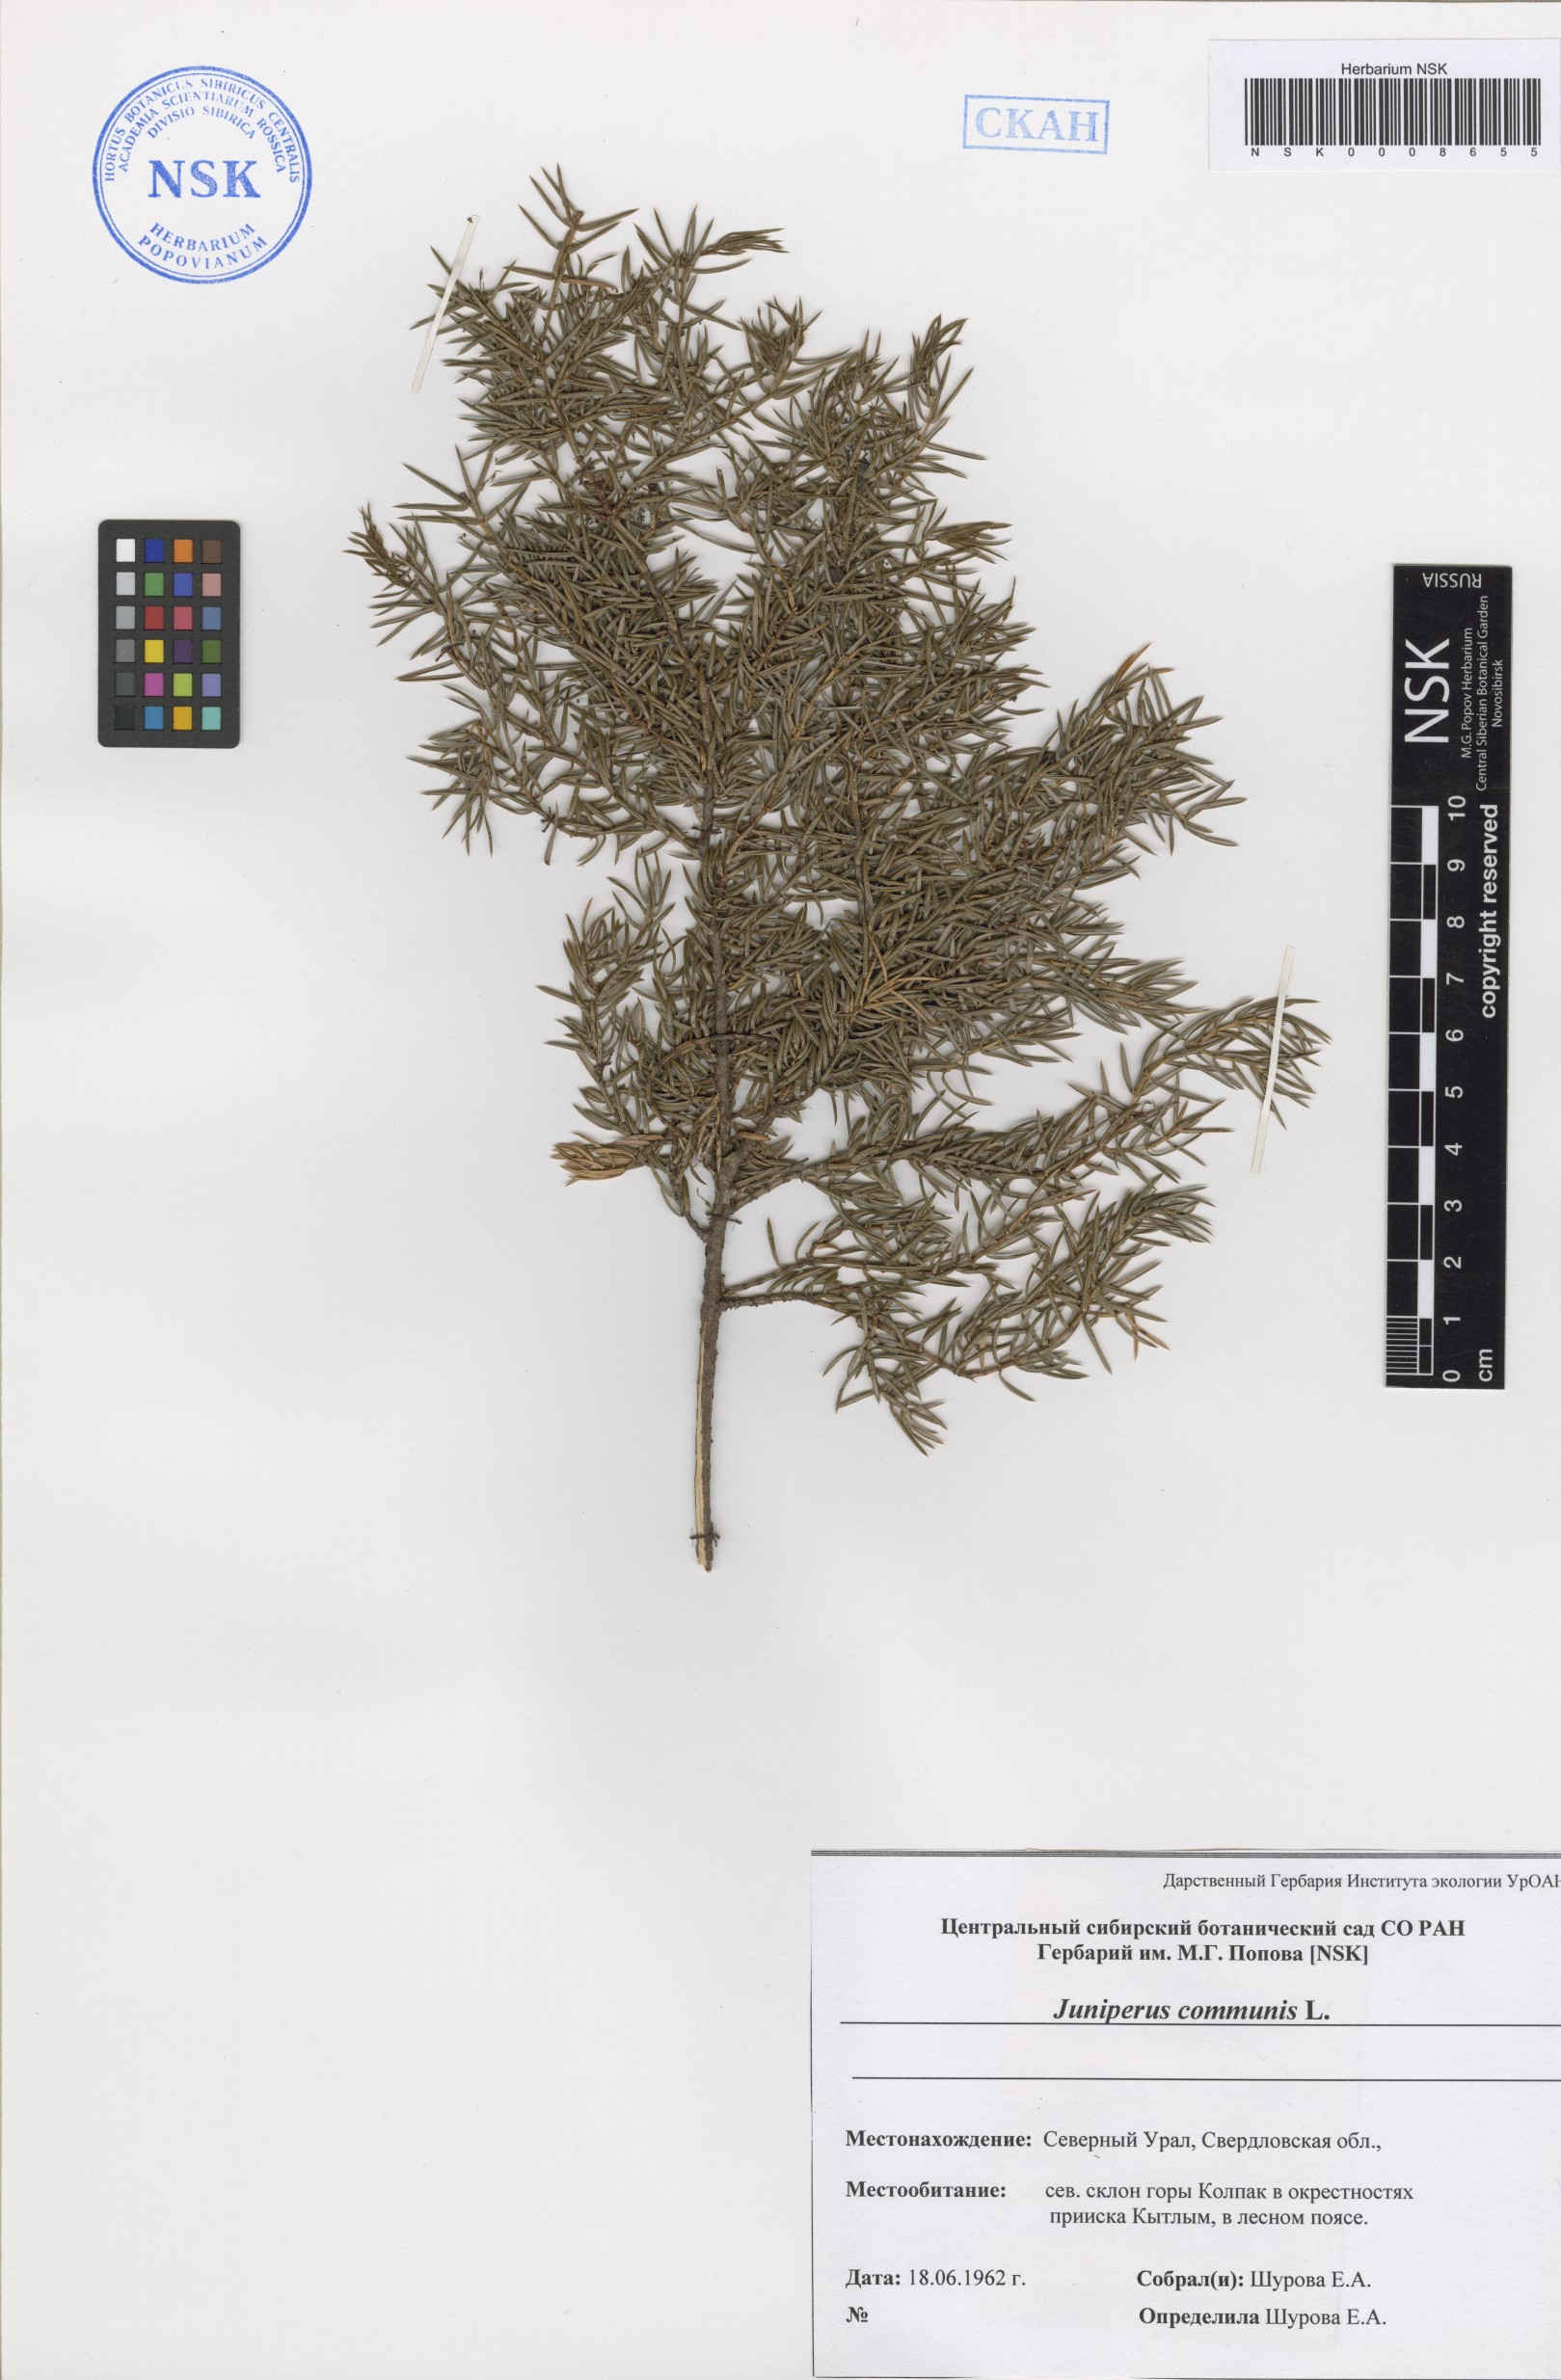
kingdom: Plantae
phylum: Tracheophyta
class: Pinopsida
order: Pinales
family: Cupressaceae
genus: Juniperus
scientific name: Juniperus communis
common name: Common juniper
